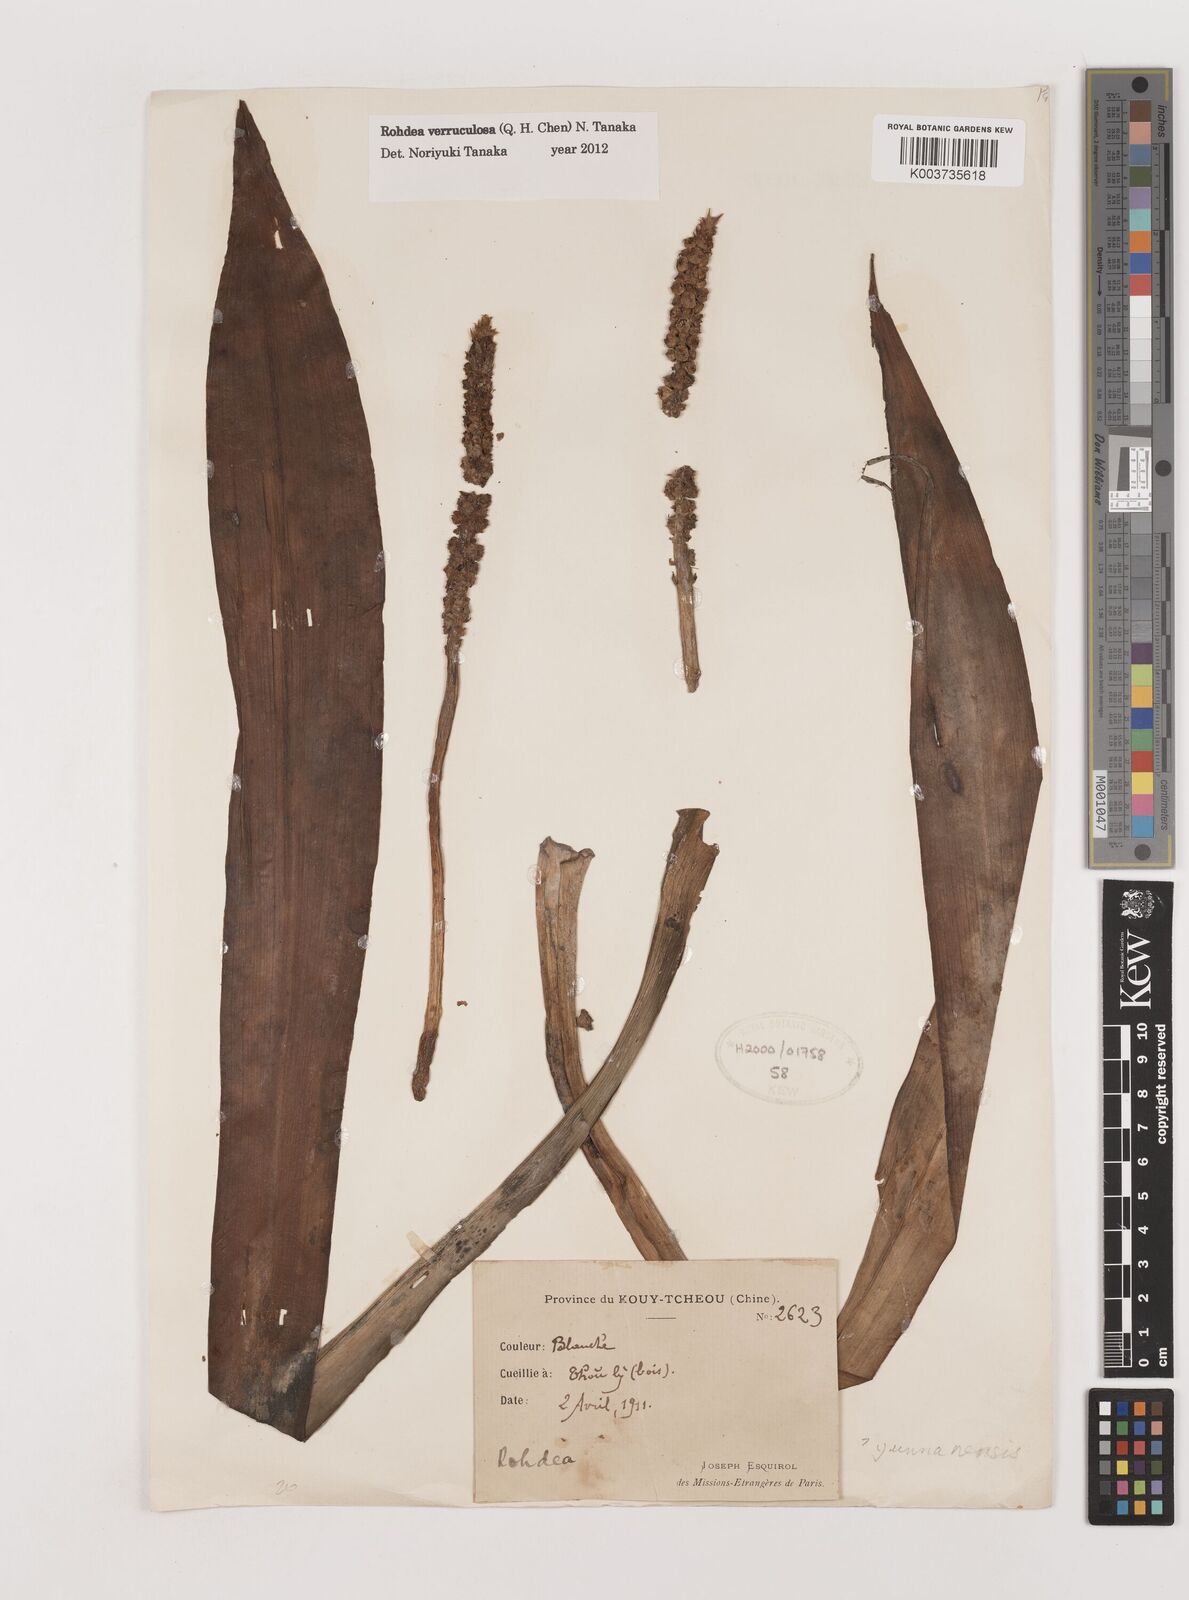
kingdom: Plantae
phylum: Tracheophyta
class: Liliopsida
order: Asparagales
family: Asparagaceae
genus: Rohdea
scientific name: Rohdea verruculosa
